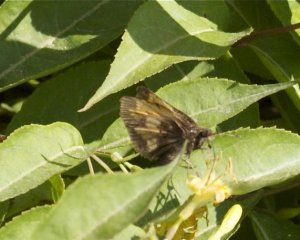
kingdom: Animalia
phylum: Arthropoda
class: Insecta
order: Lepidoptera
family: Hesperiidae
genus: Lon
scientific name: Lon hobomok
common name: Hobomok Skipper
